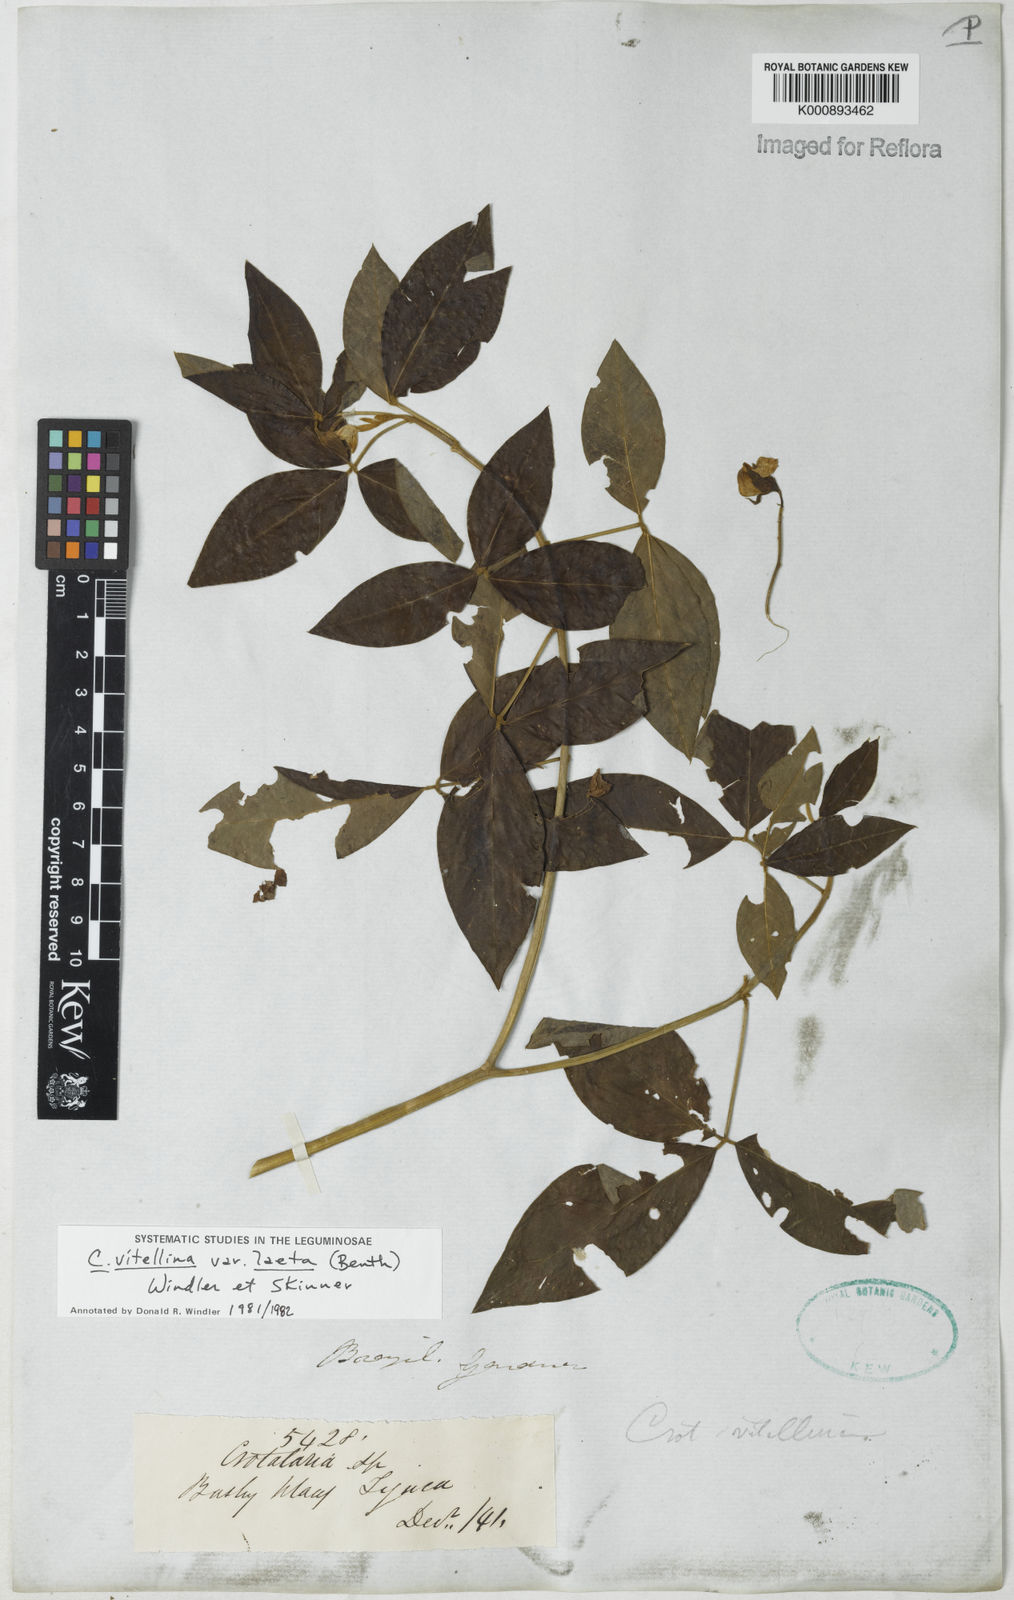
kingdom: Plantae
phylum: Tracheophyta
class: Magnoliopsida
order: Fabales
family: Fabaceae
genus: Crotalaria
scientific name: Crotalaria laeta
